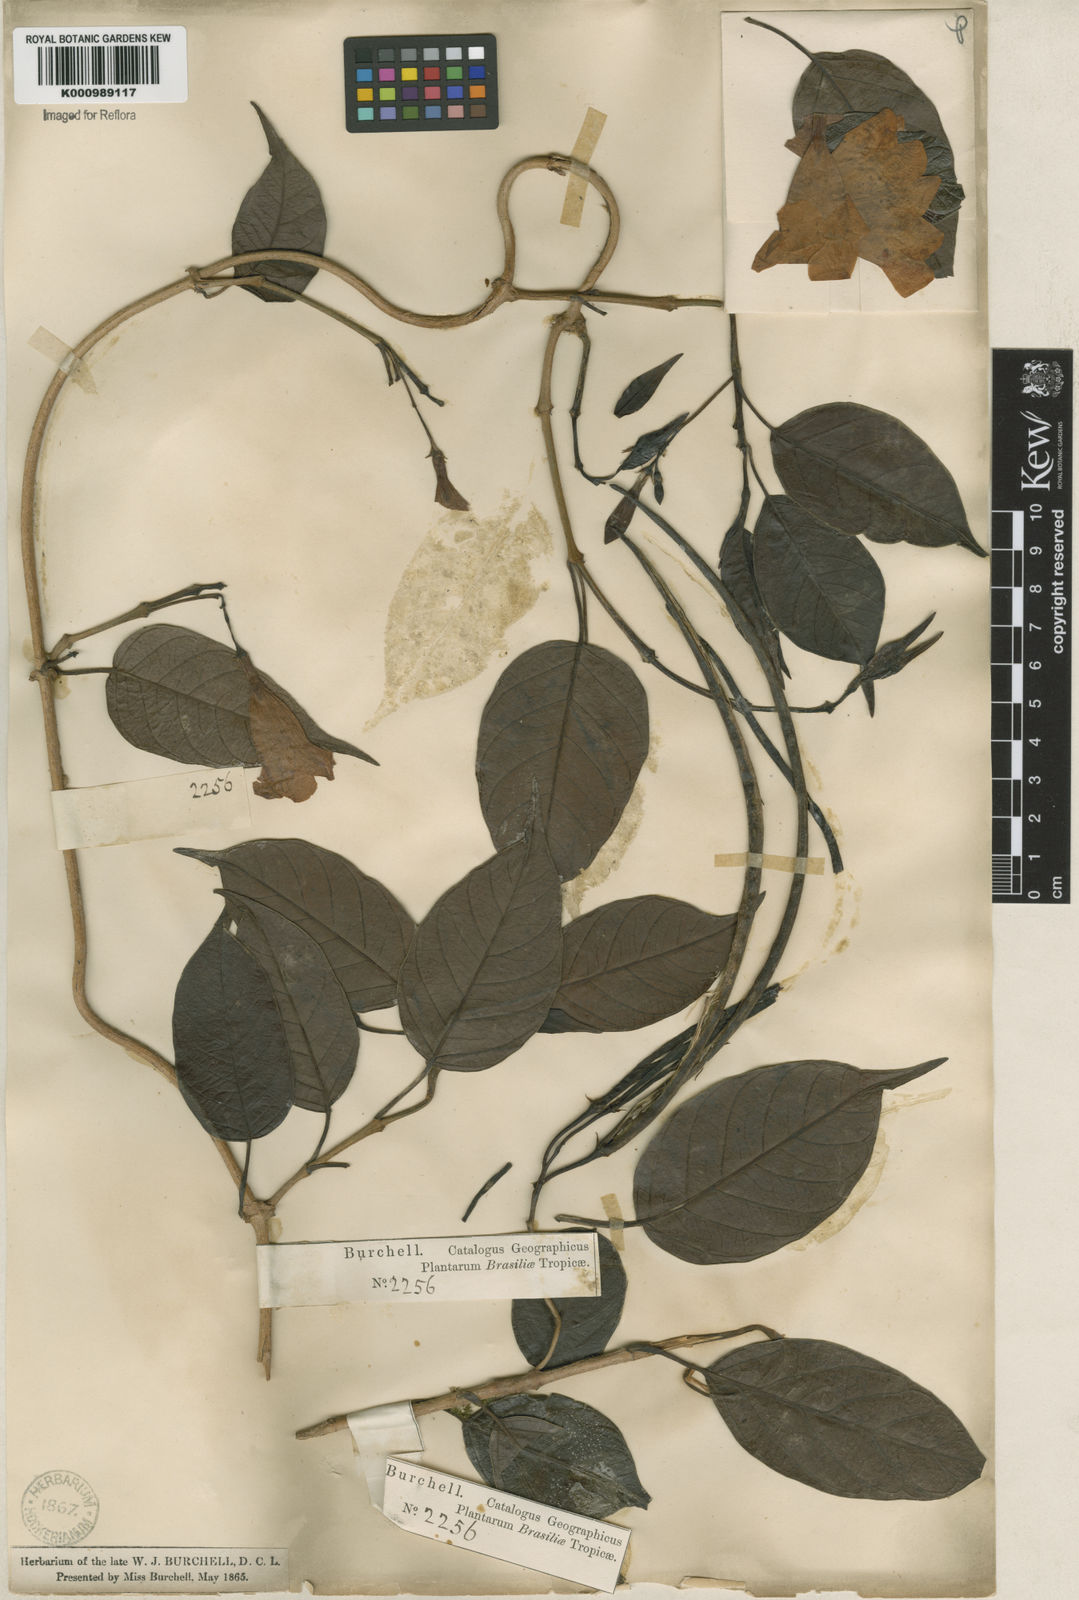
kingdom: Plantae
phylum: Tracheophyta
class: Magnoliopsida
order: Gentianales
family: Apocynaceae
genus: Mandevilla
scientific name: Mandevilla urophylla
